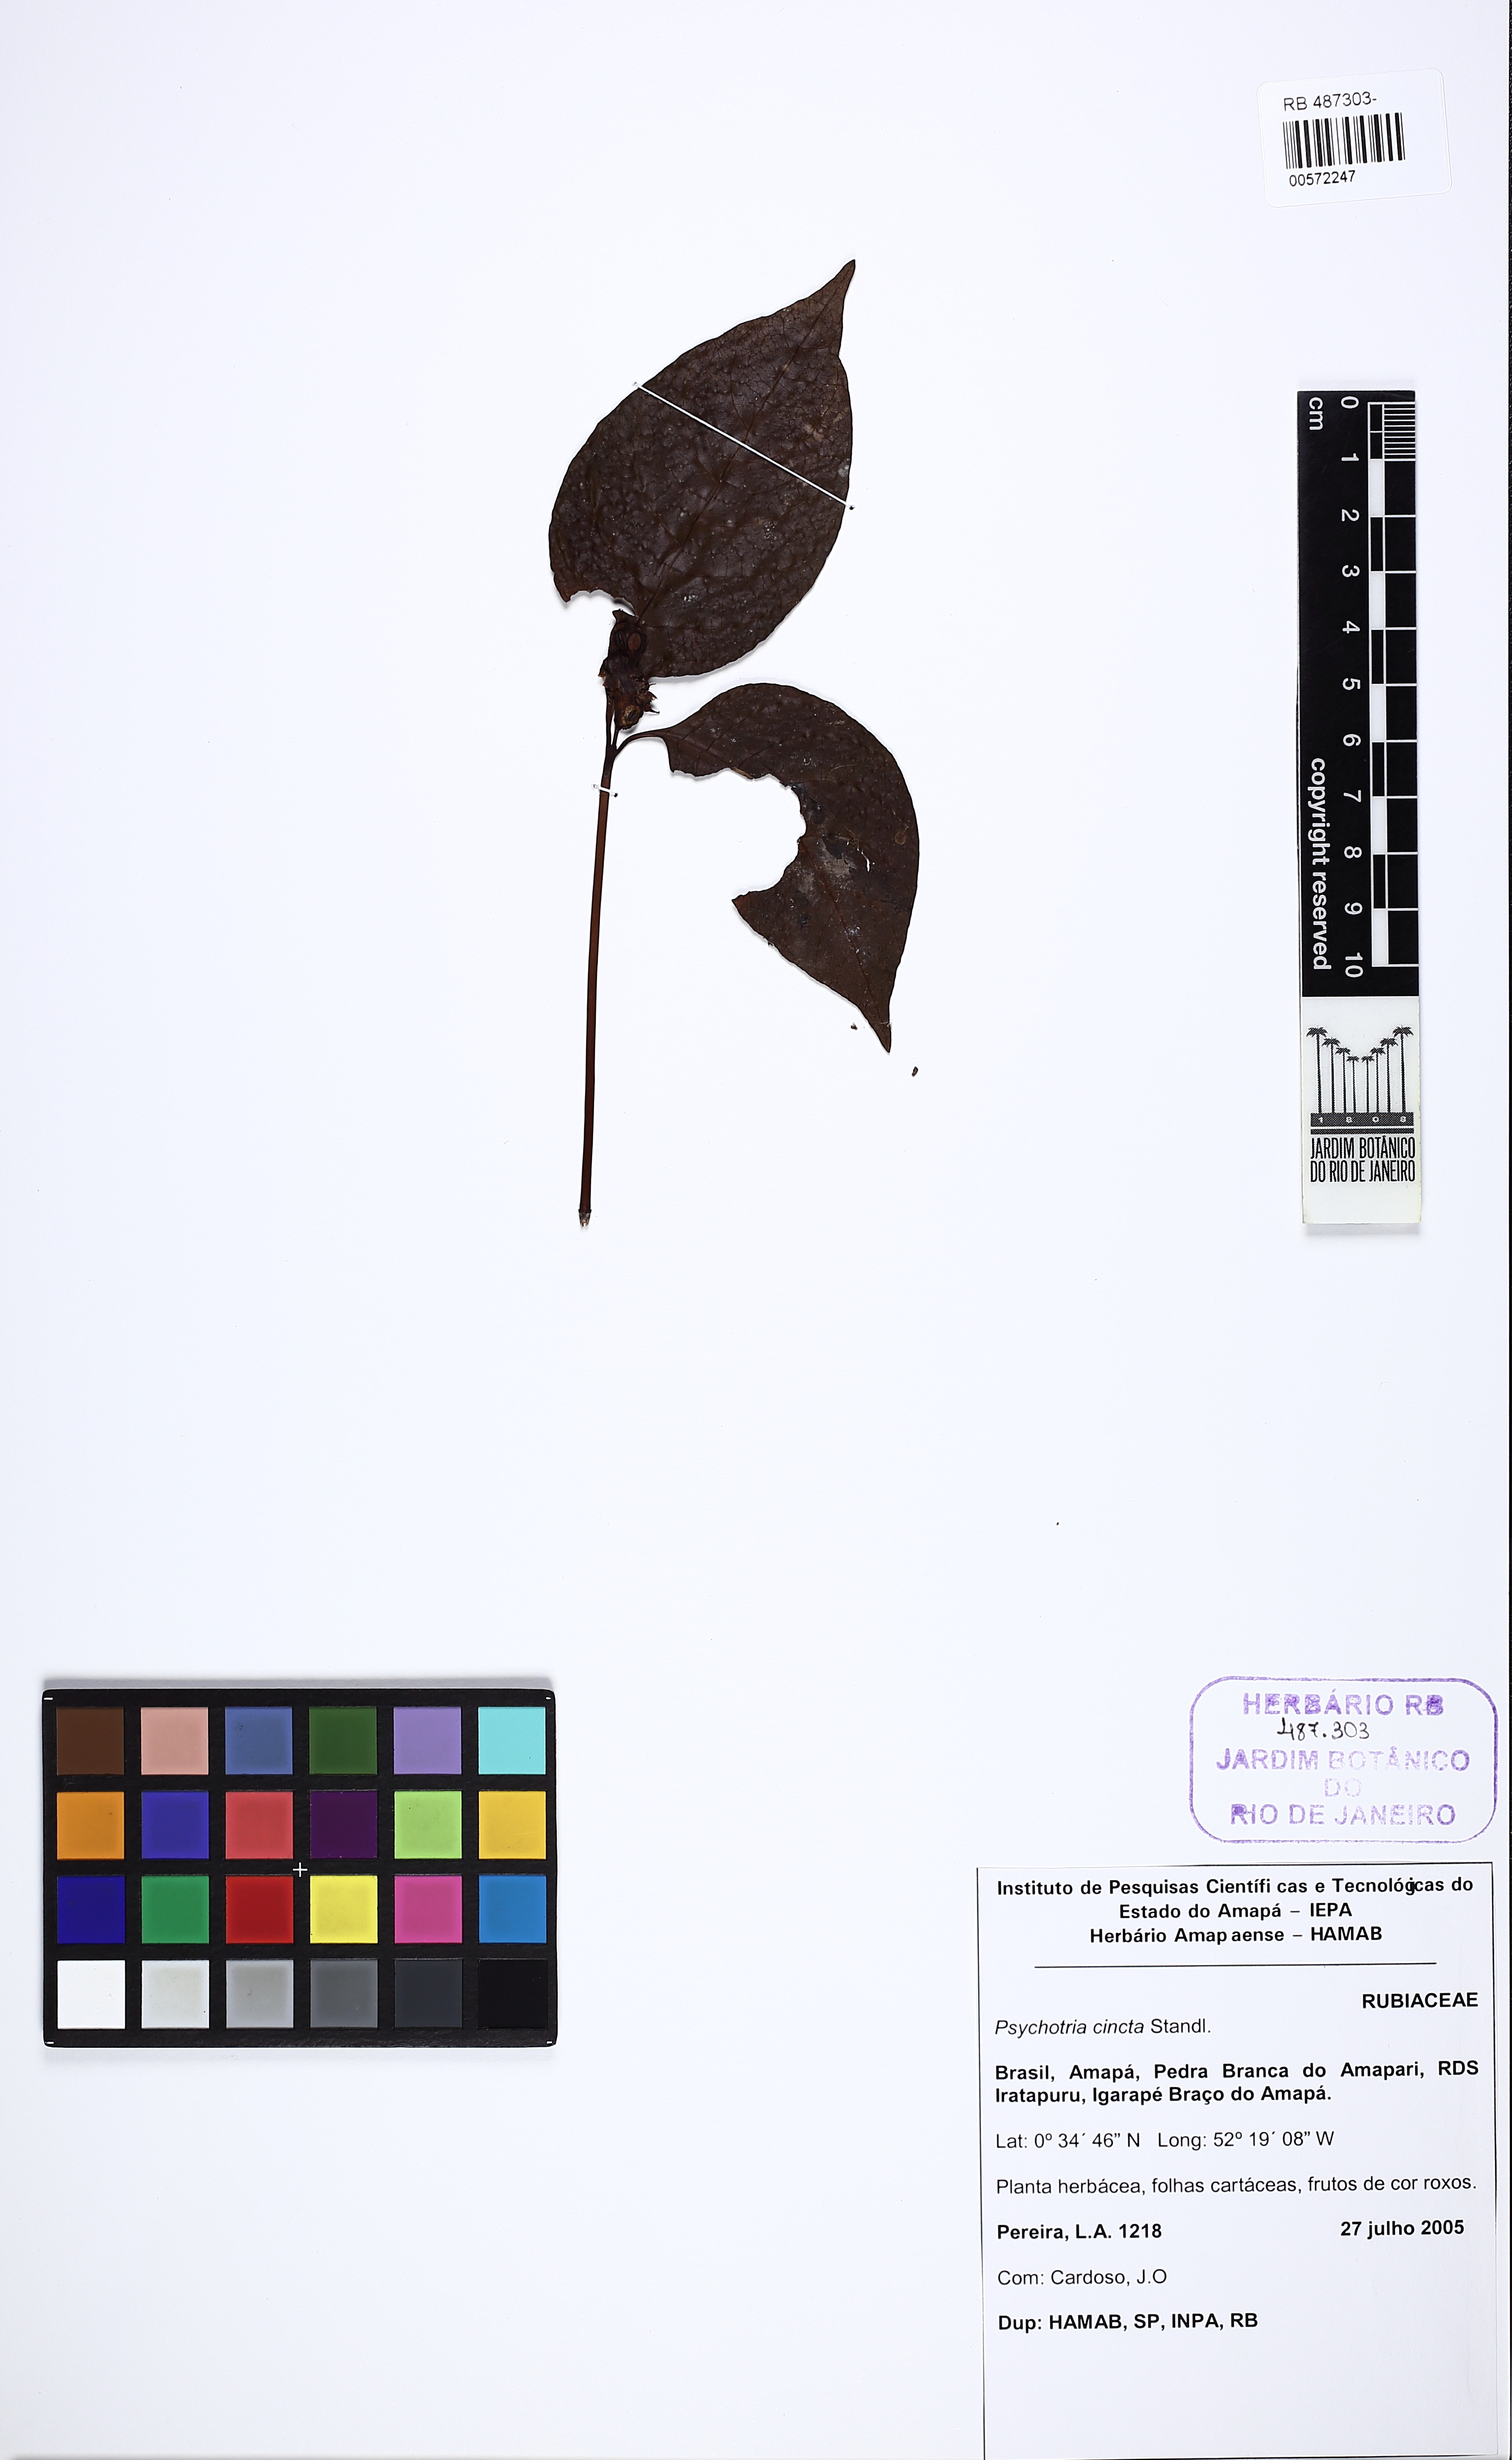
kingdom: Plantae
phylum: Tracheophyta
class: Magnoliopsida
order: Gentianales
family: Rubiaceae
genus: Palicourea
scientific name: Palicourea longicuspis
